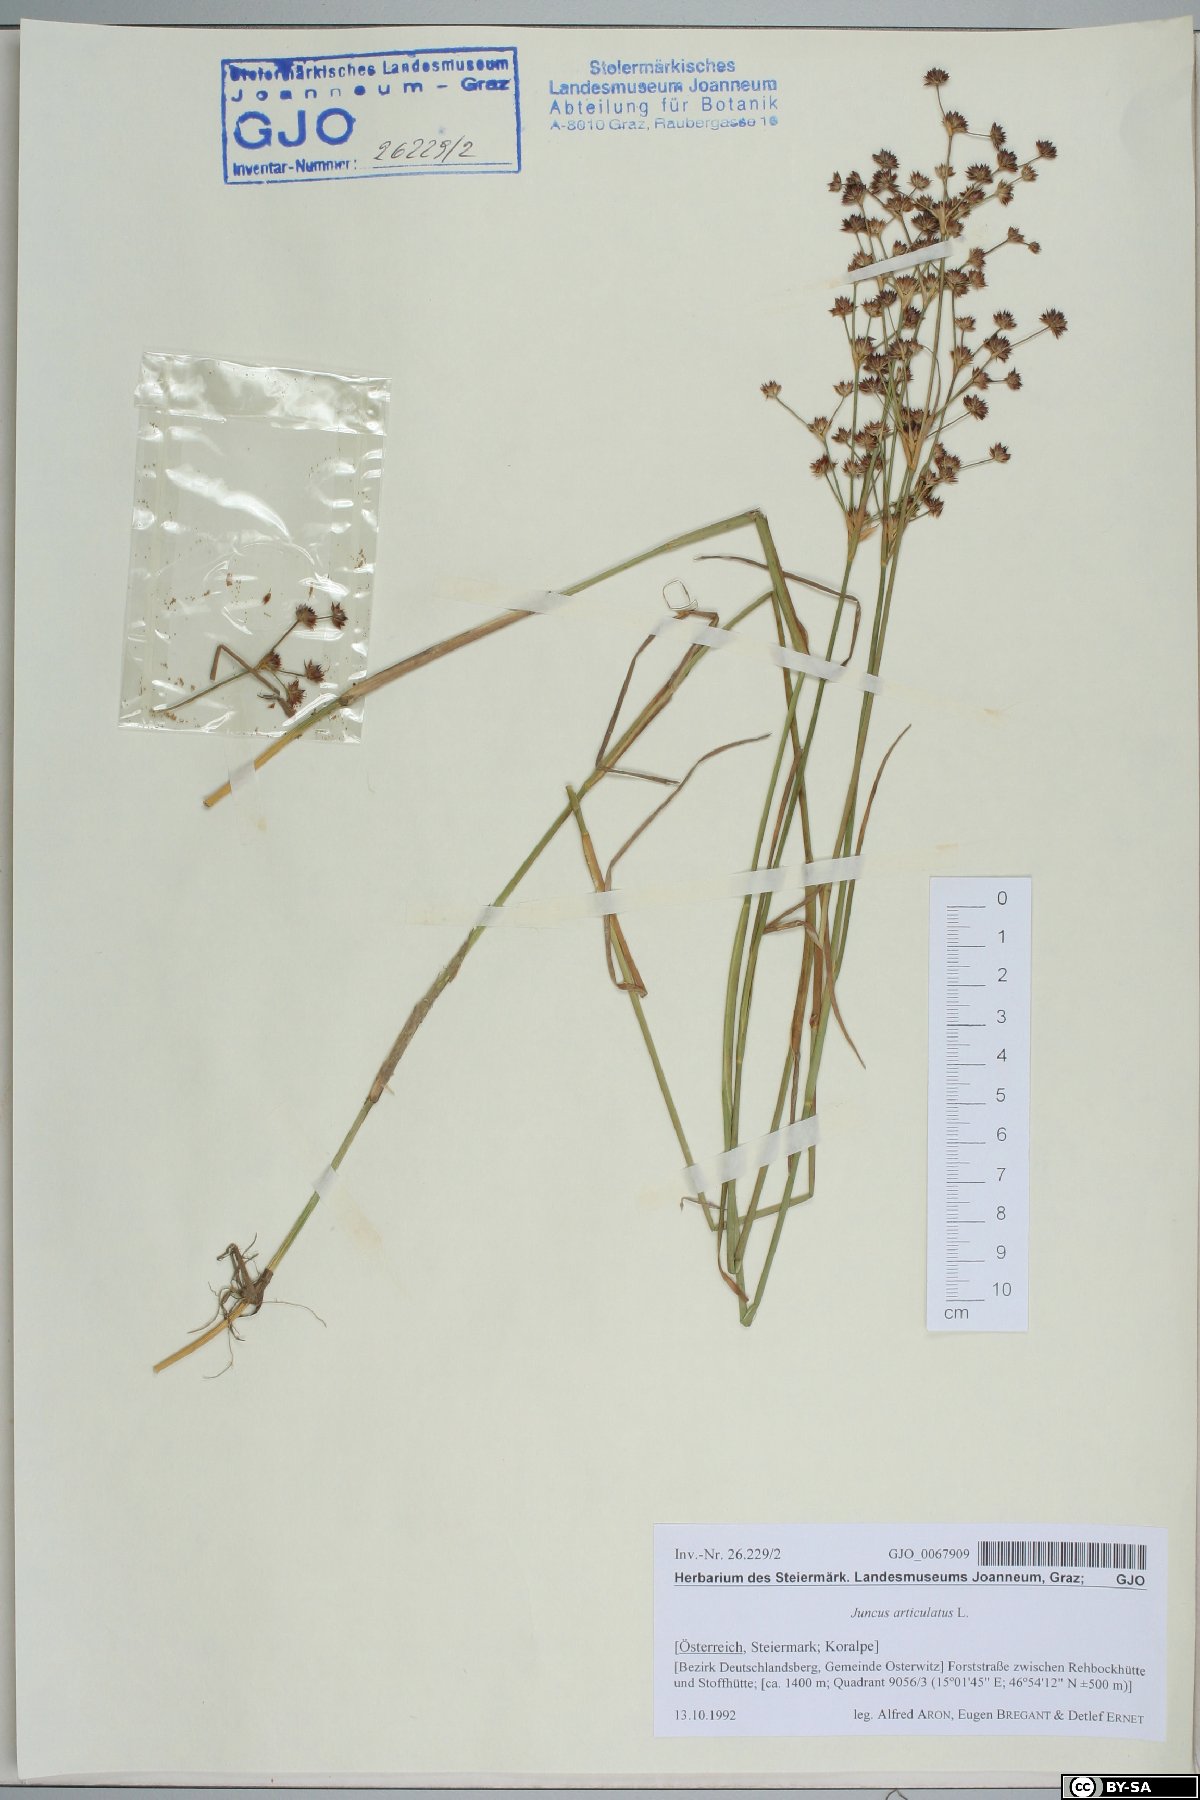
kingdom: Plantae
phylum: Tracheophyta
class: Liliopsida
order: Poales
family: Juncaceae
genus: Juncus
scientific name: Juncus articulatus
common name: Jointed rush
